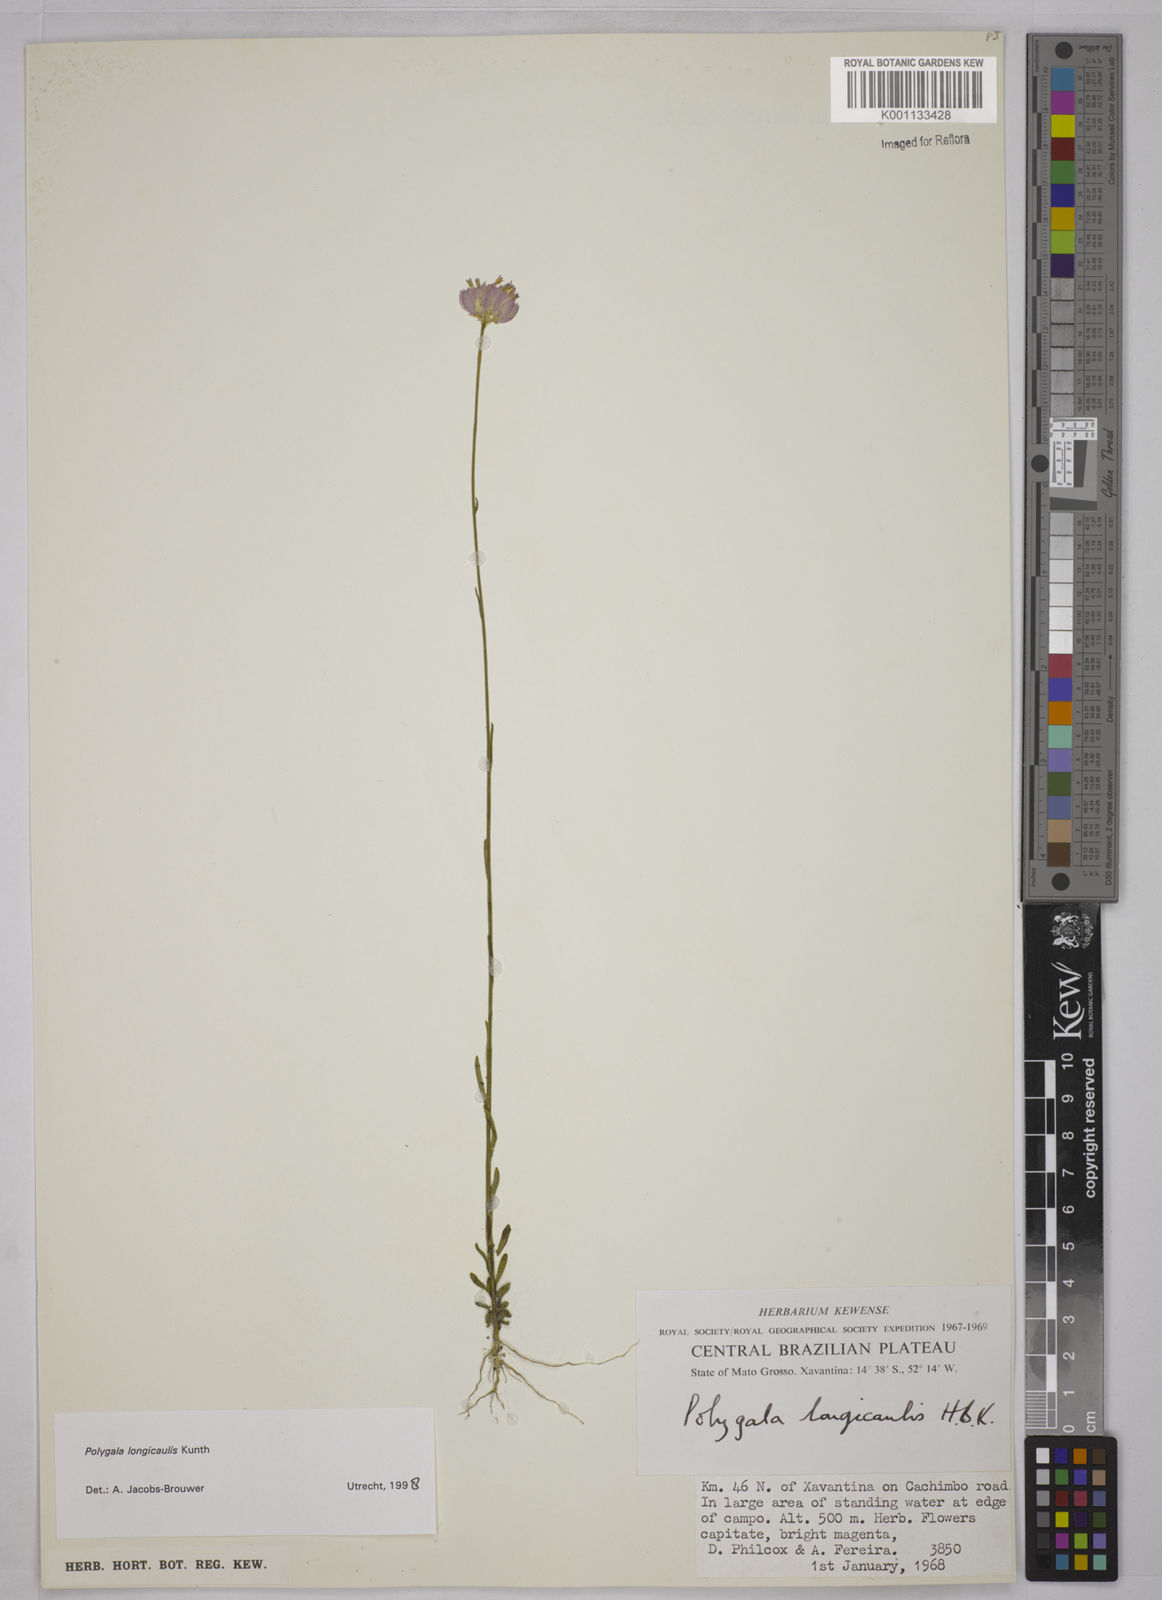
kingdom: Plantae
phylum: Tracheophyta
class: Magnoliopsida
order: Fabales
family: Polygalaceae
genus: Polygala
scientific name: Polygala longicaulis
